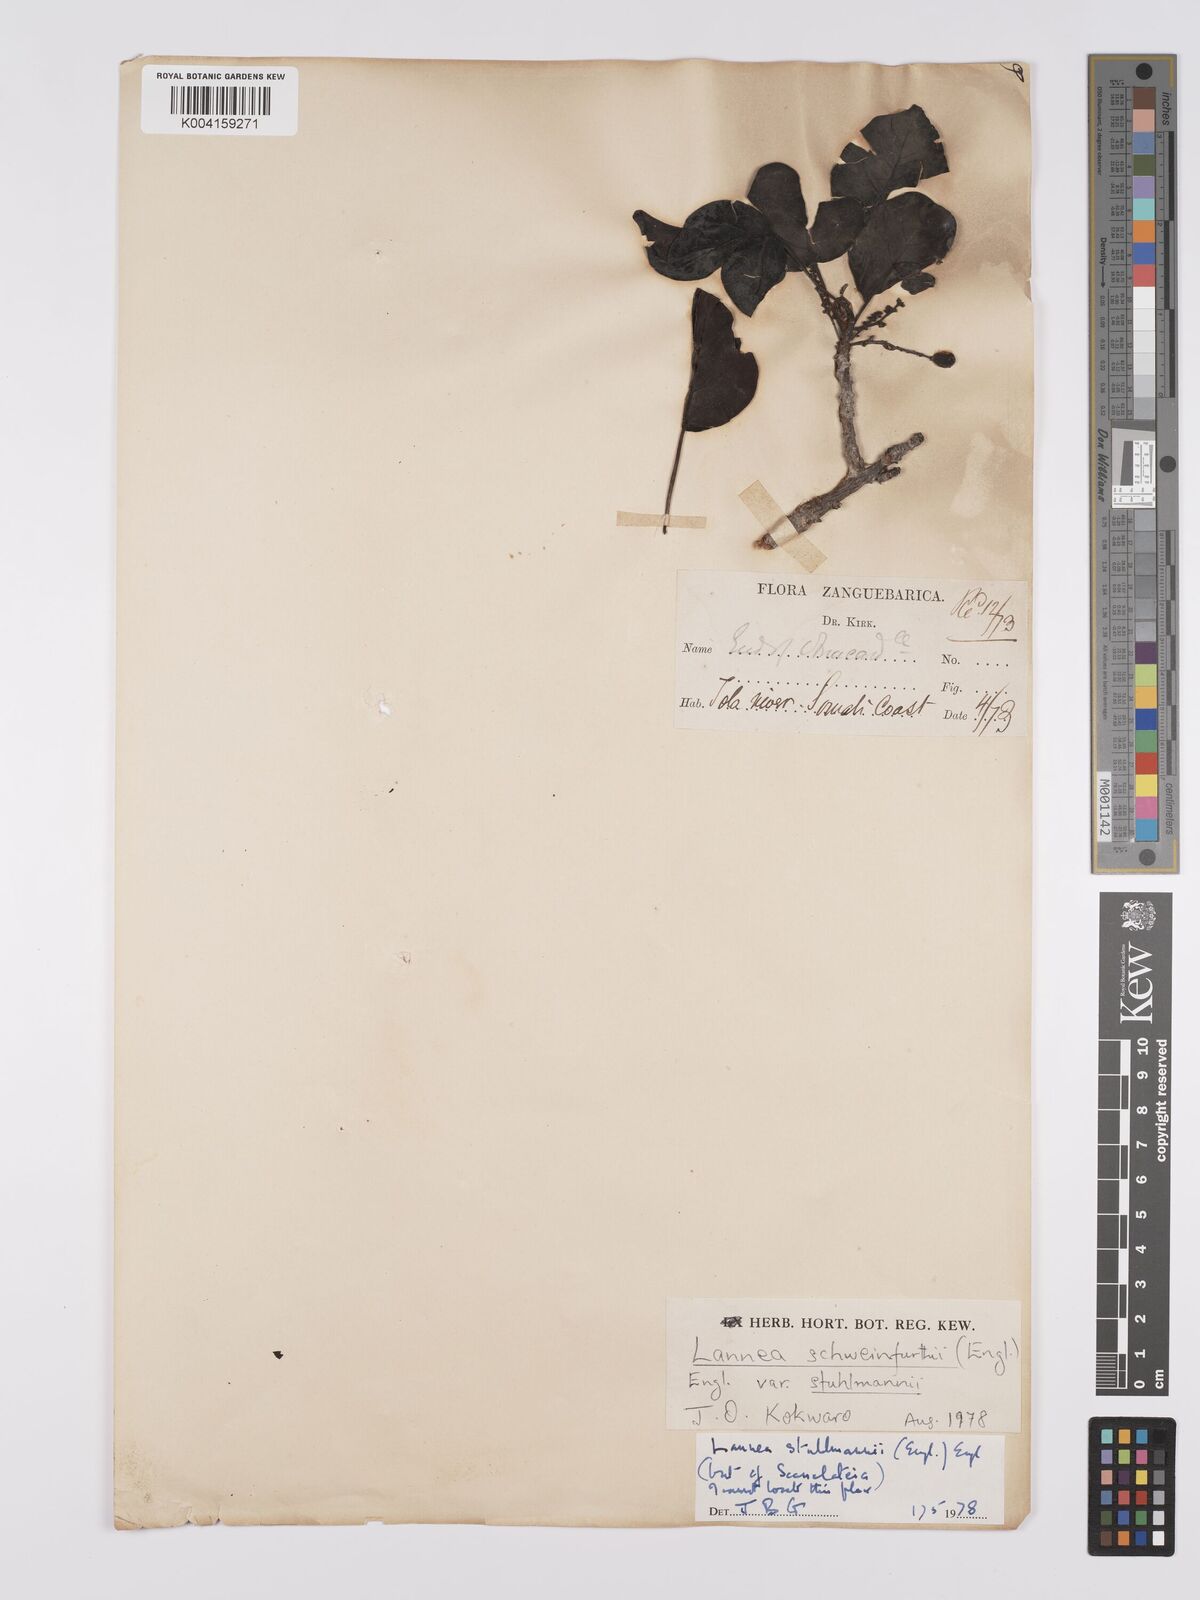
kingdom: Plantae
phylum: Tracheophyta
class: Magnoliopsida
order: Sapindales
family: Anacardiaceae
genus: Lannea
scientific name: Lannea schweinfurthii
